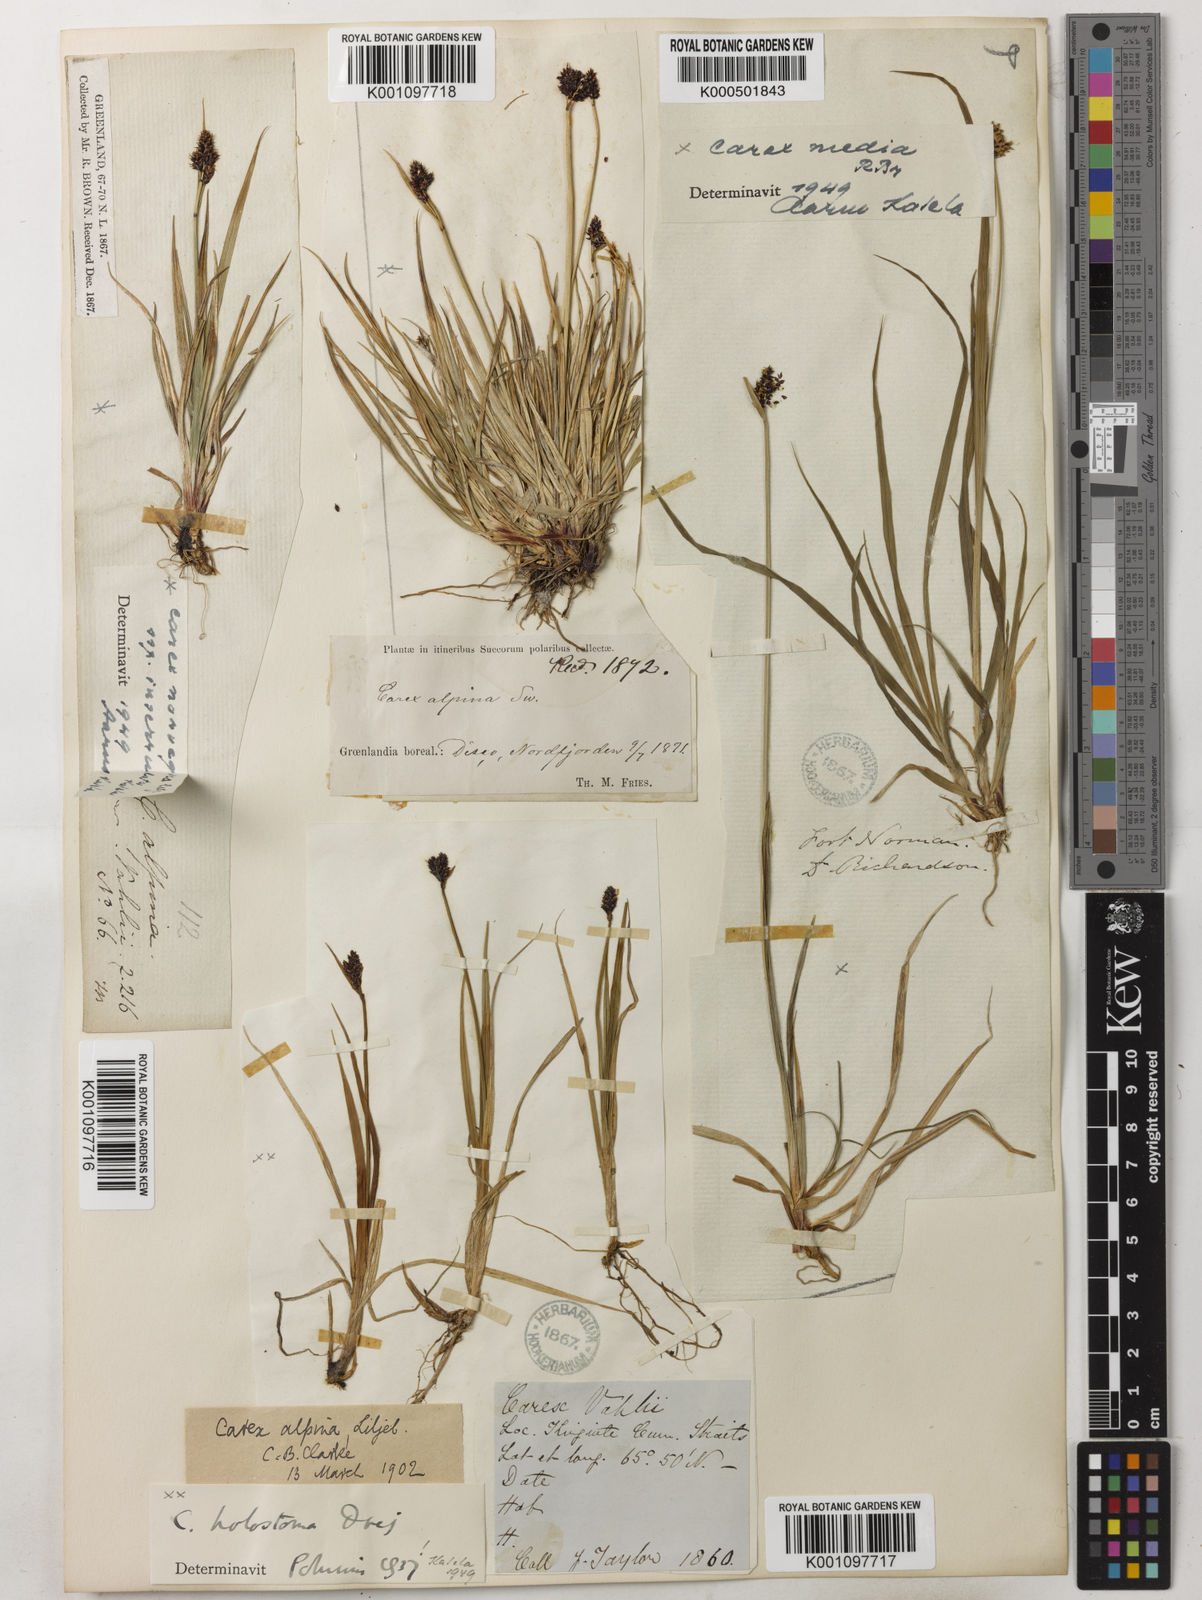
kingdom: Plantae
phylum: Tracheophyta
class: Liliopsida
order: Poales
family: Cyperaceae
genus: Carex
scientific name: Carex media
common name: Alpine sedge
